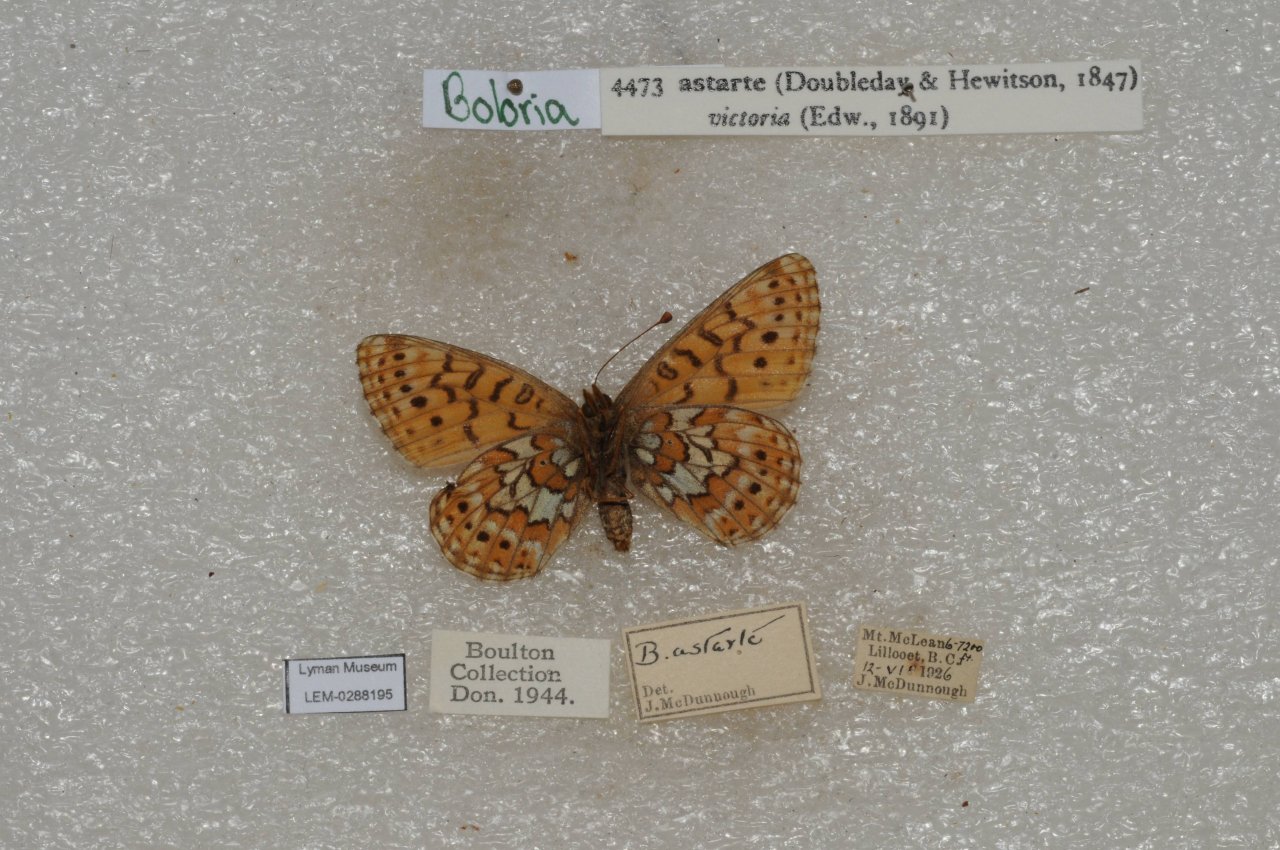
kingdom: Animalia
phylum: Arthropoda
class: Insecta
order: Lepidoptera
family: Nymphalidae
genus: Clossiana
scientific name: Clossiana astarte
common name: Astarte Fritillary
